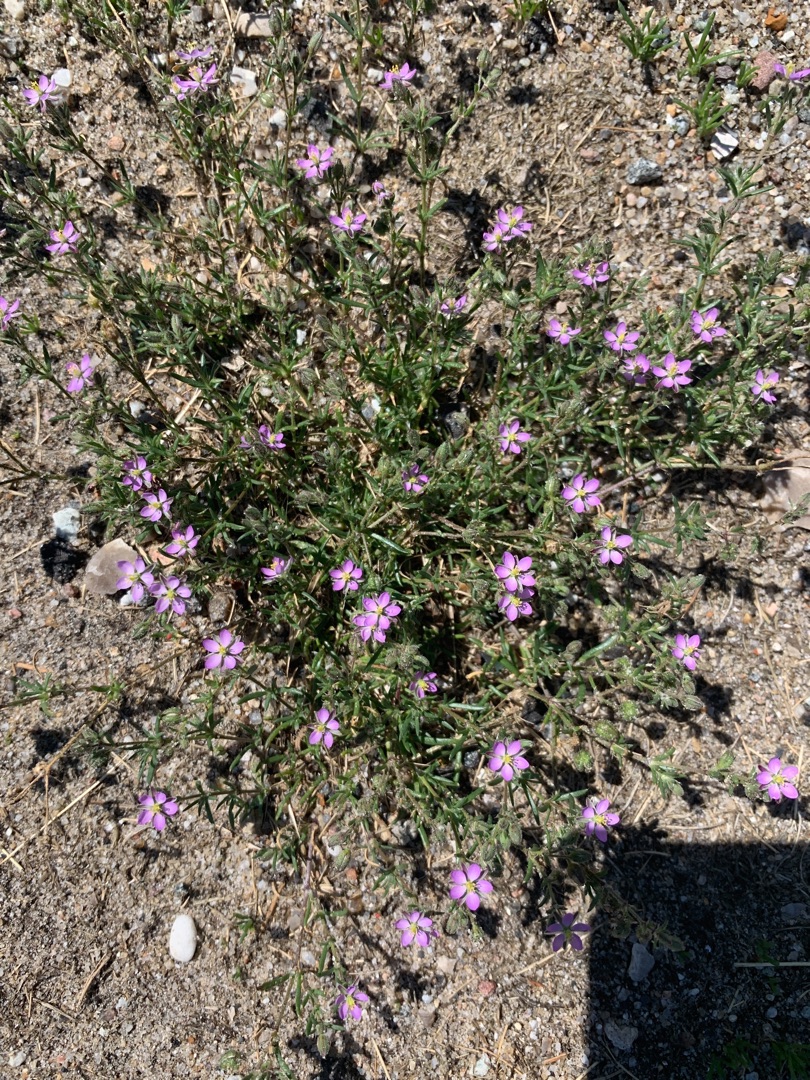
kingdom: Plantae
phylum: Tracheophyta
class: Magnoliopsida
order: Caryophyllales
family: Caryophyllaceae
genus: Spergularia
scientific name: Spergularia rubra
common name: Mark-hindeknæ
